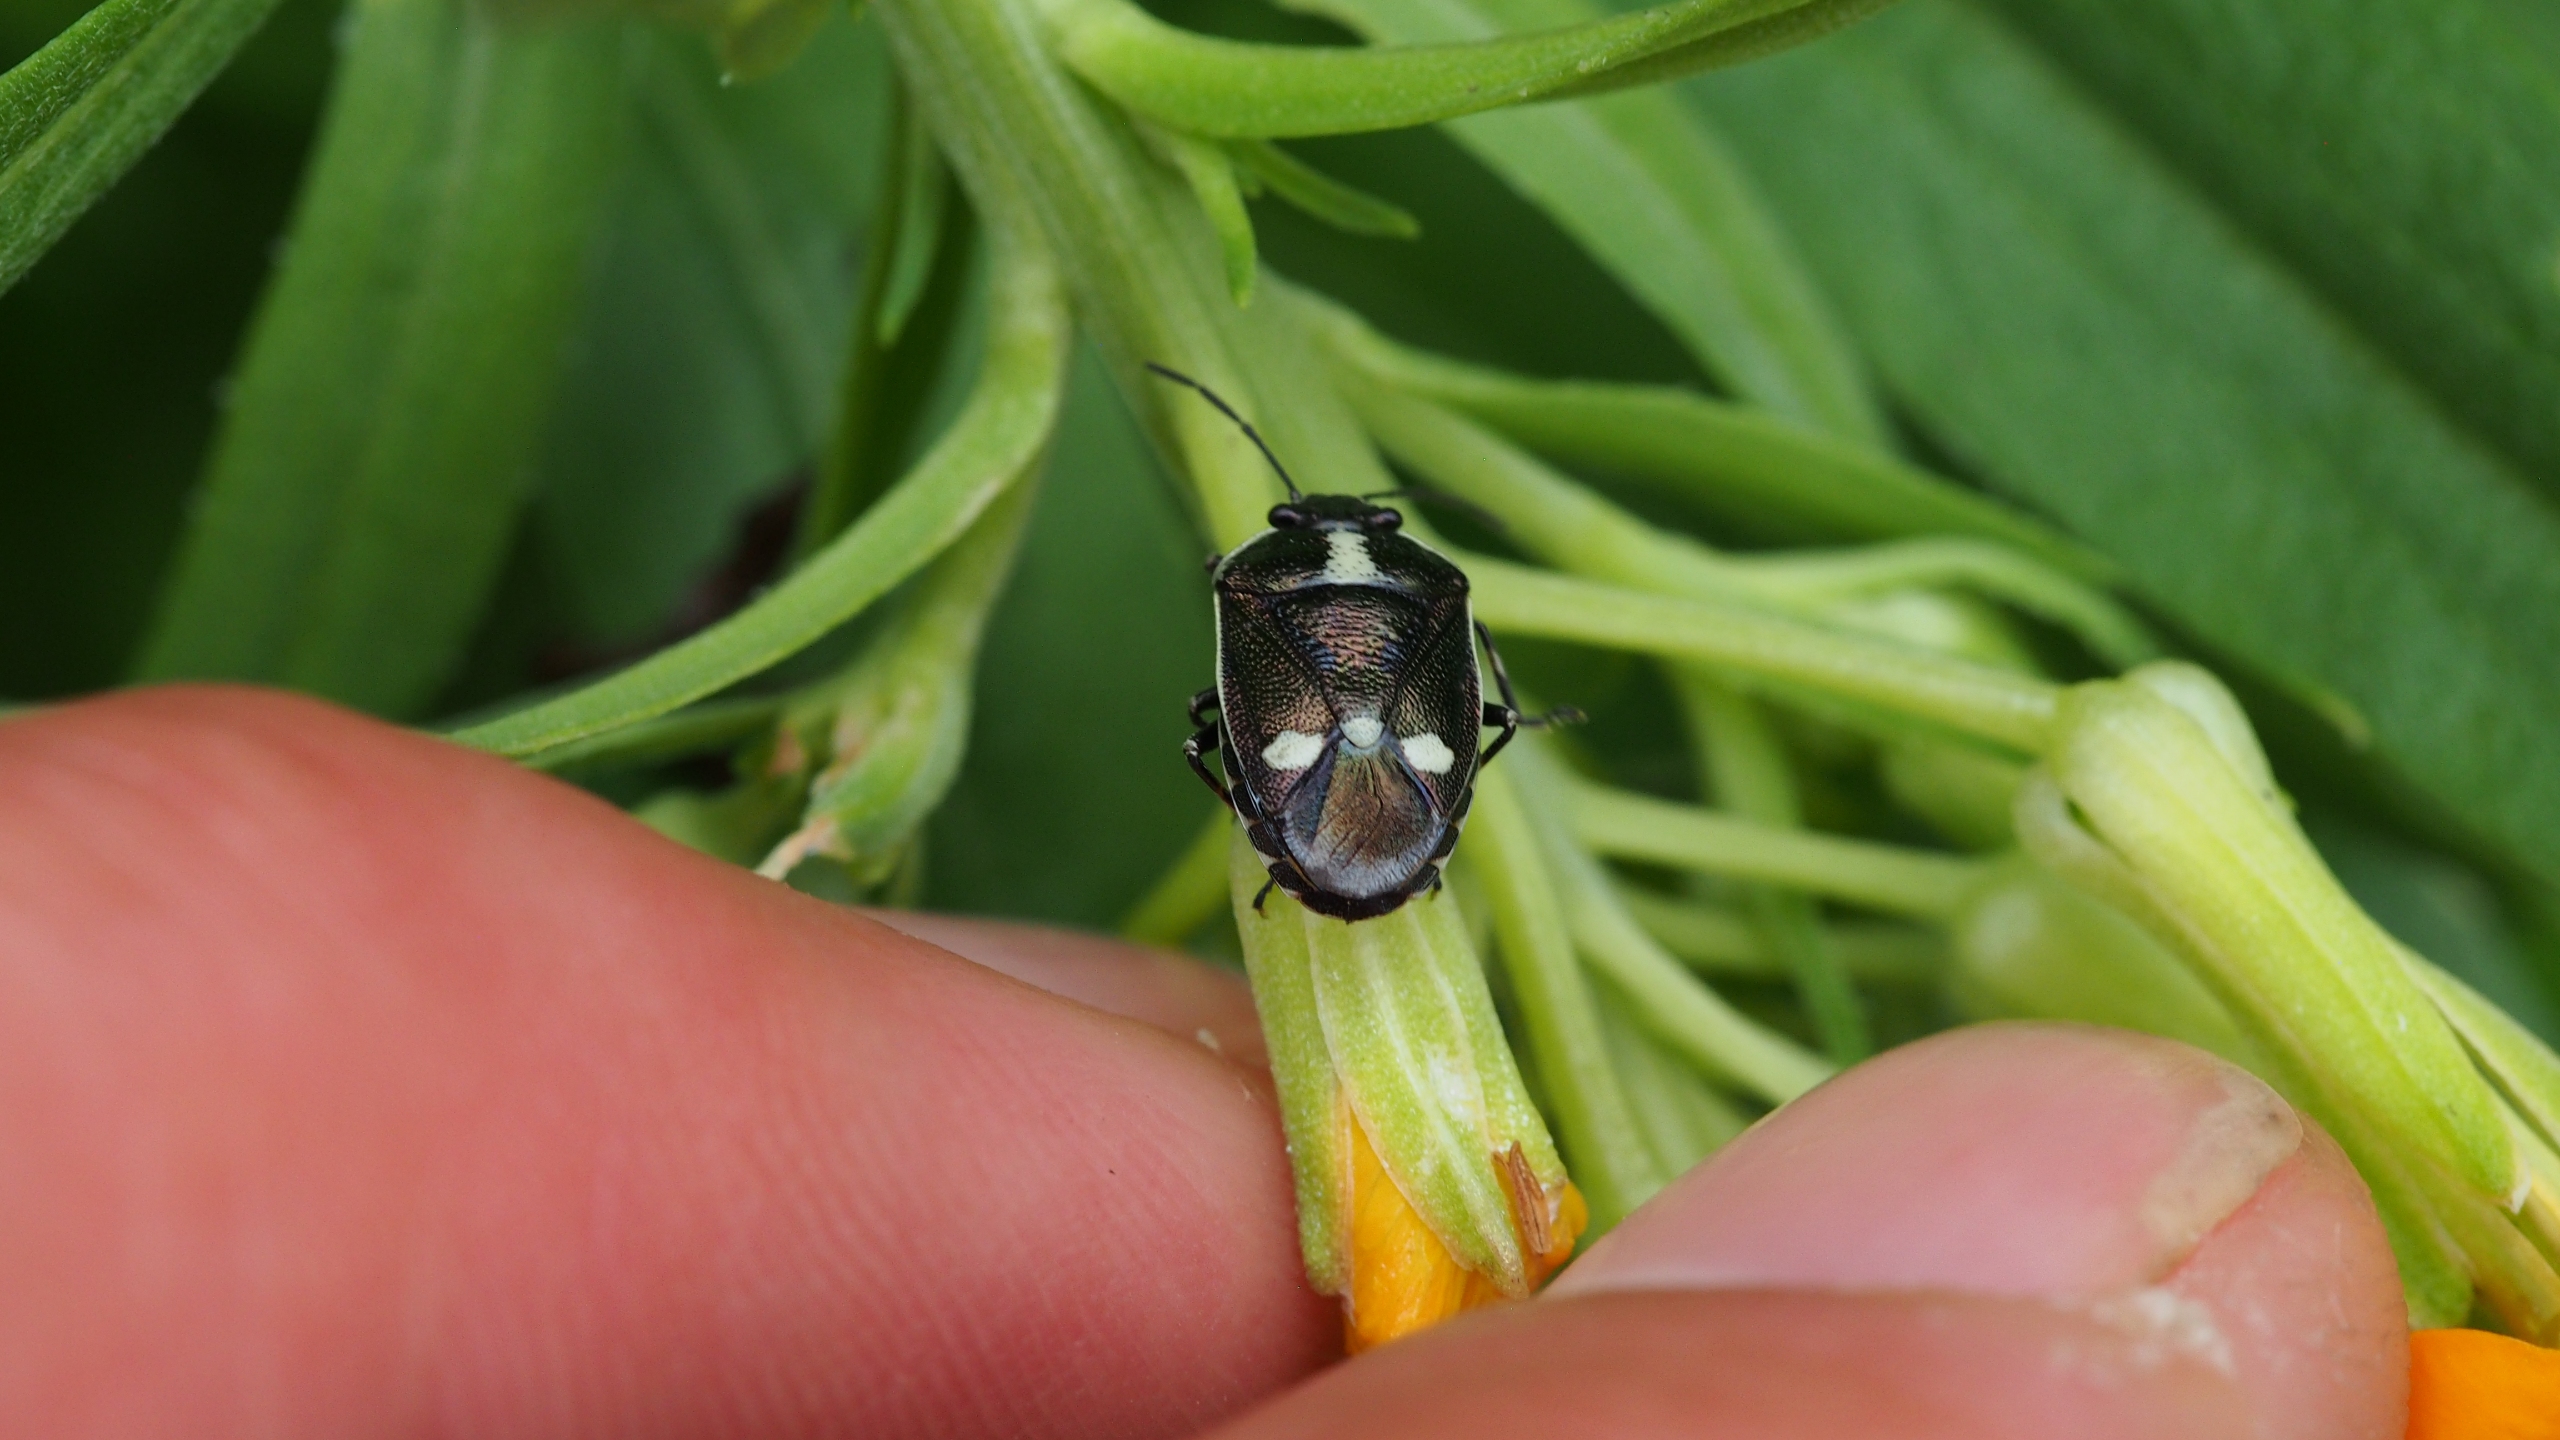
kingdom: Animalia
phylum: Arthropoda
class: Insecta
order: Hemiptera
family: Pentatomidae
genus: Eurydema
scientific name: Eurydema oleracea
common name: Almindelig kåltæge
